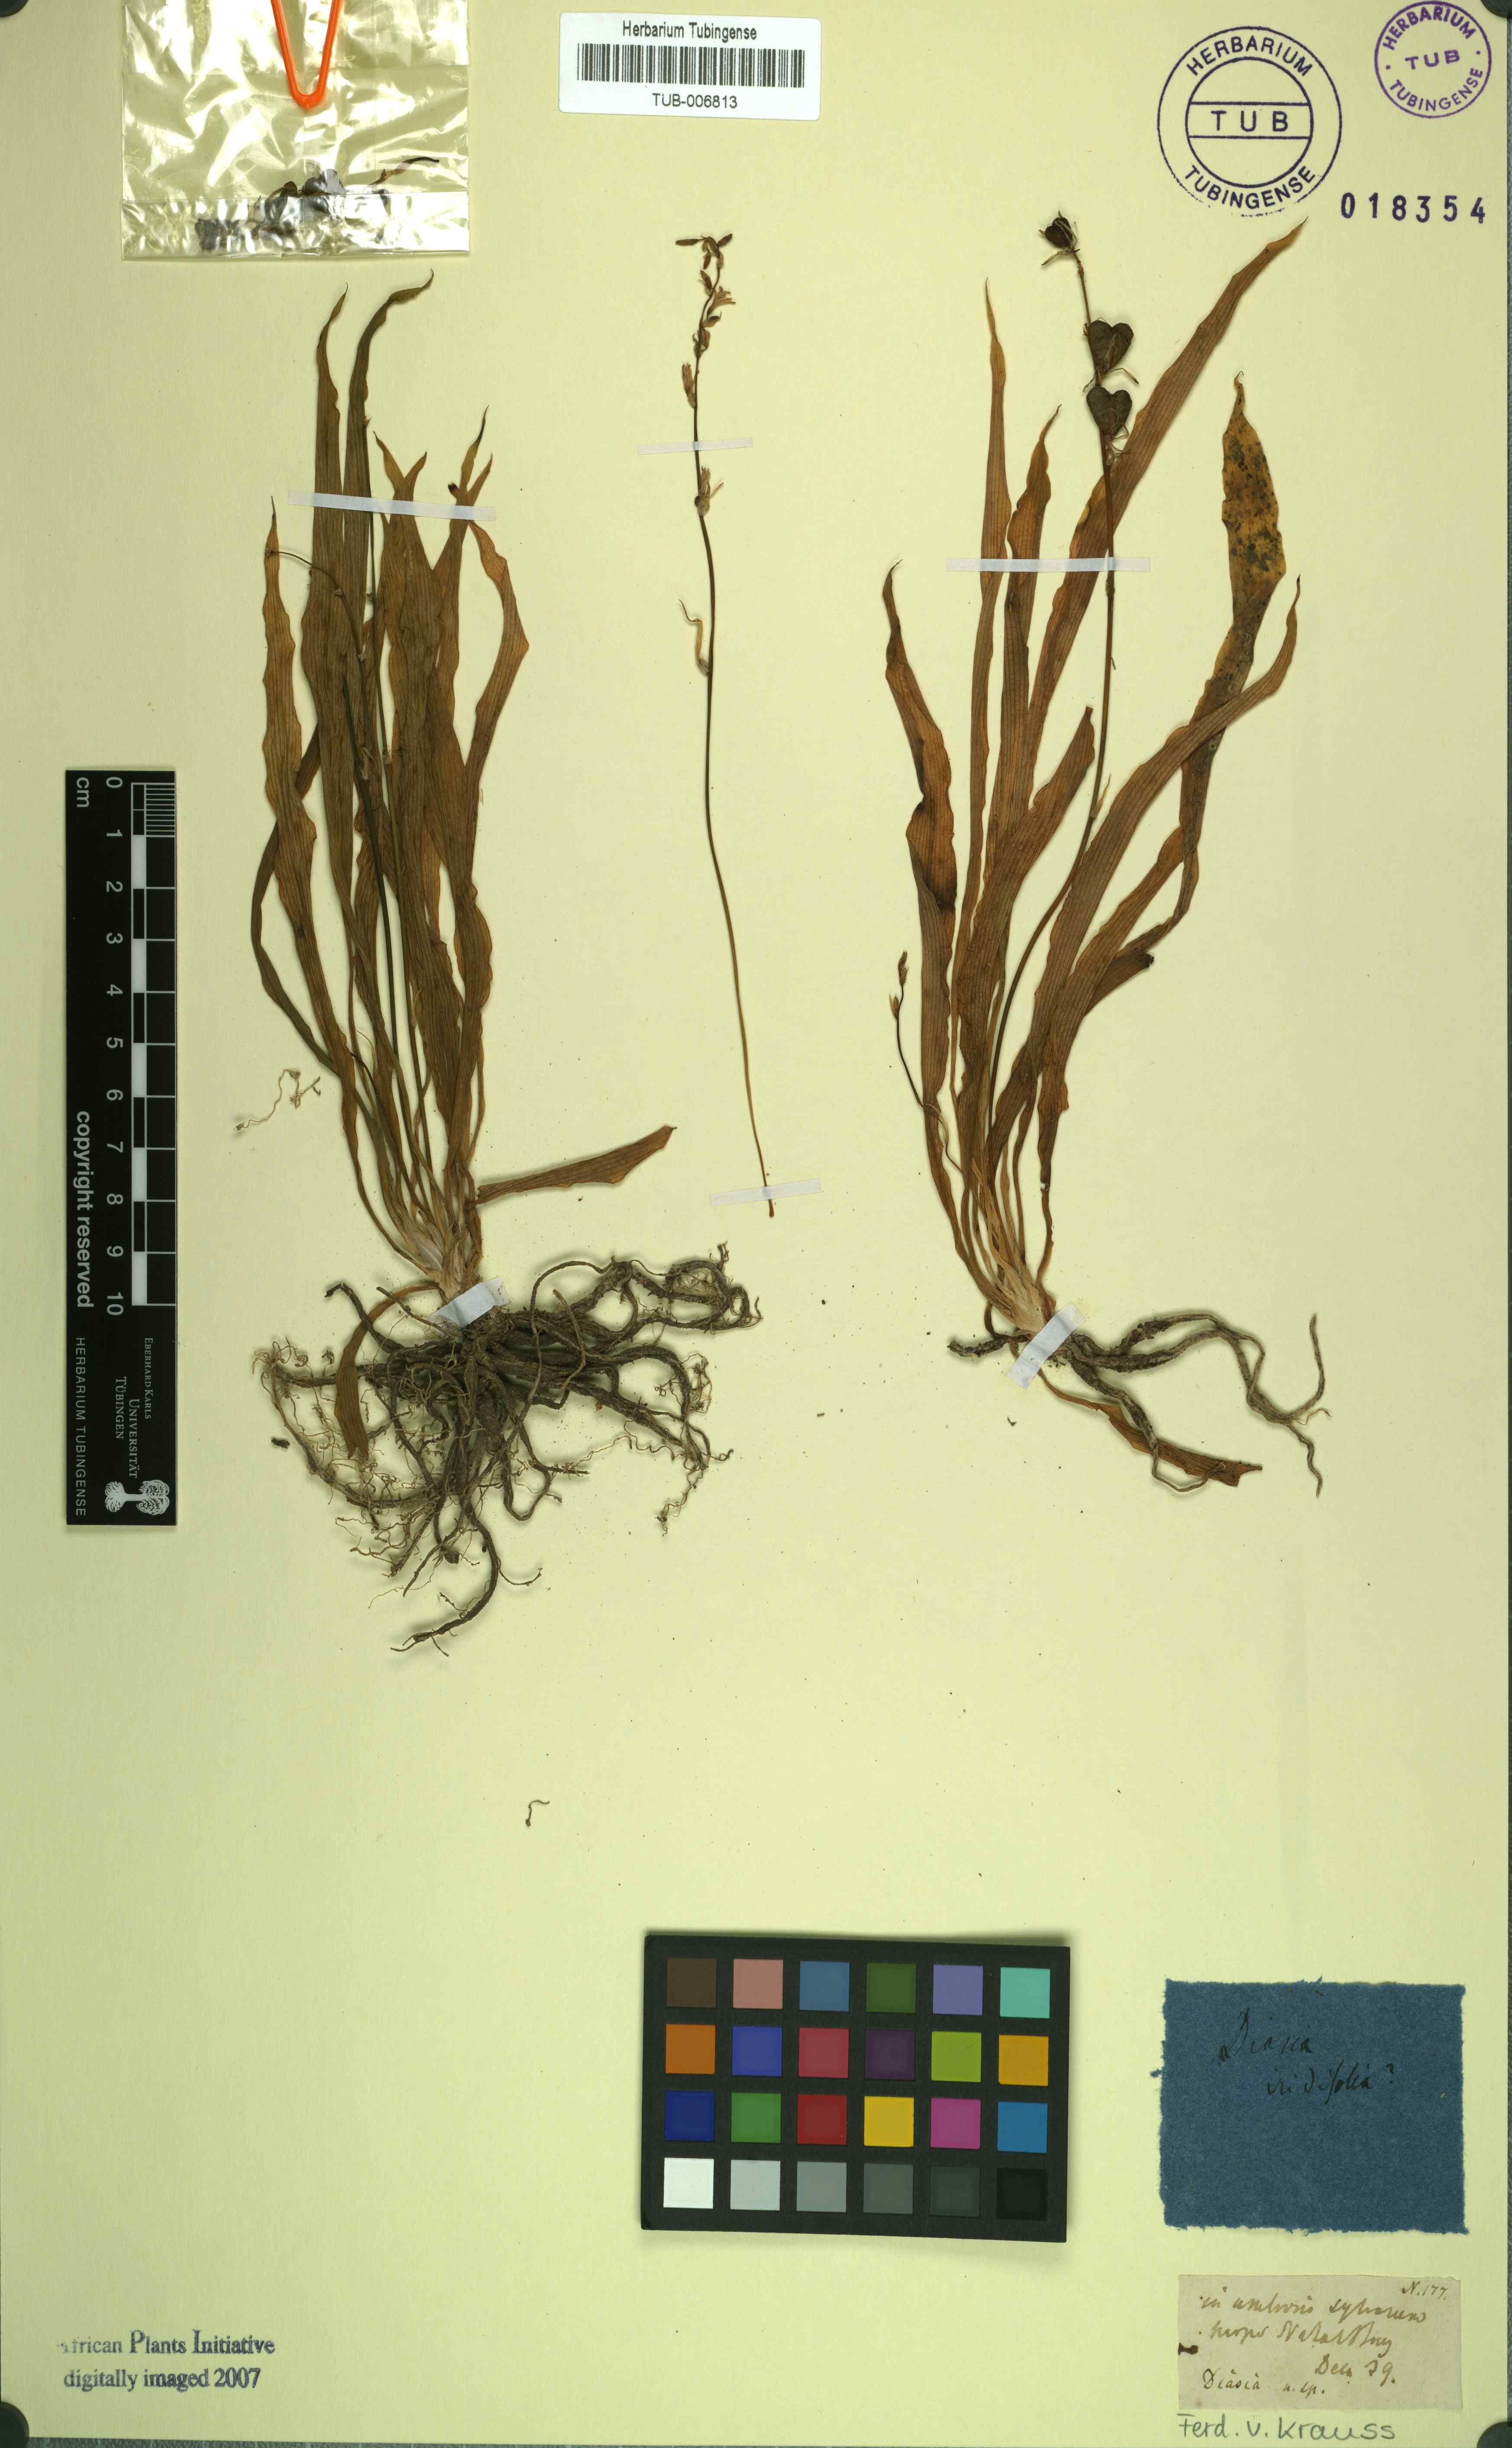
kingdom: Plantae
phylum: Tracheophyta
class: Liliopsida
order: Asparagales
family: Iridaceae
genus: Melasphaerula
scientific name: Melasphaerula graminea
